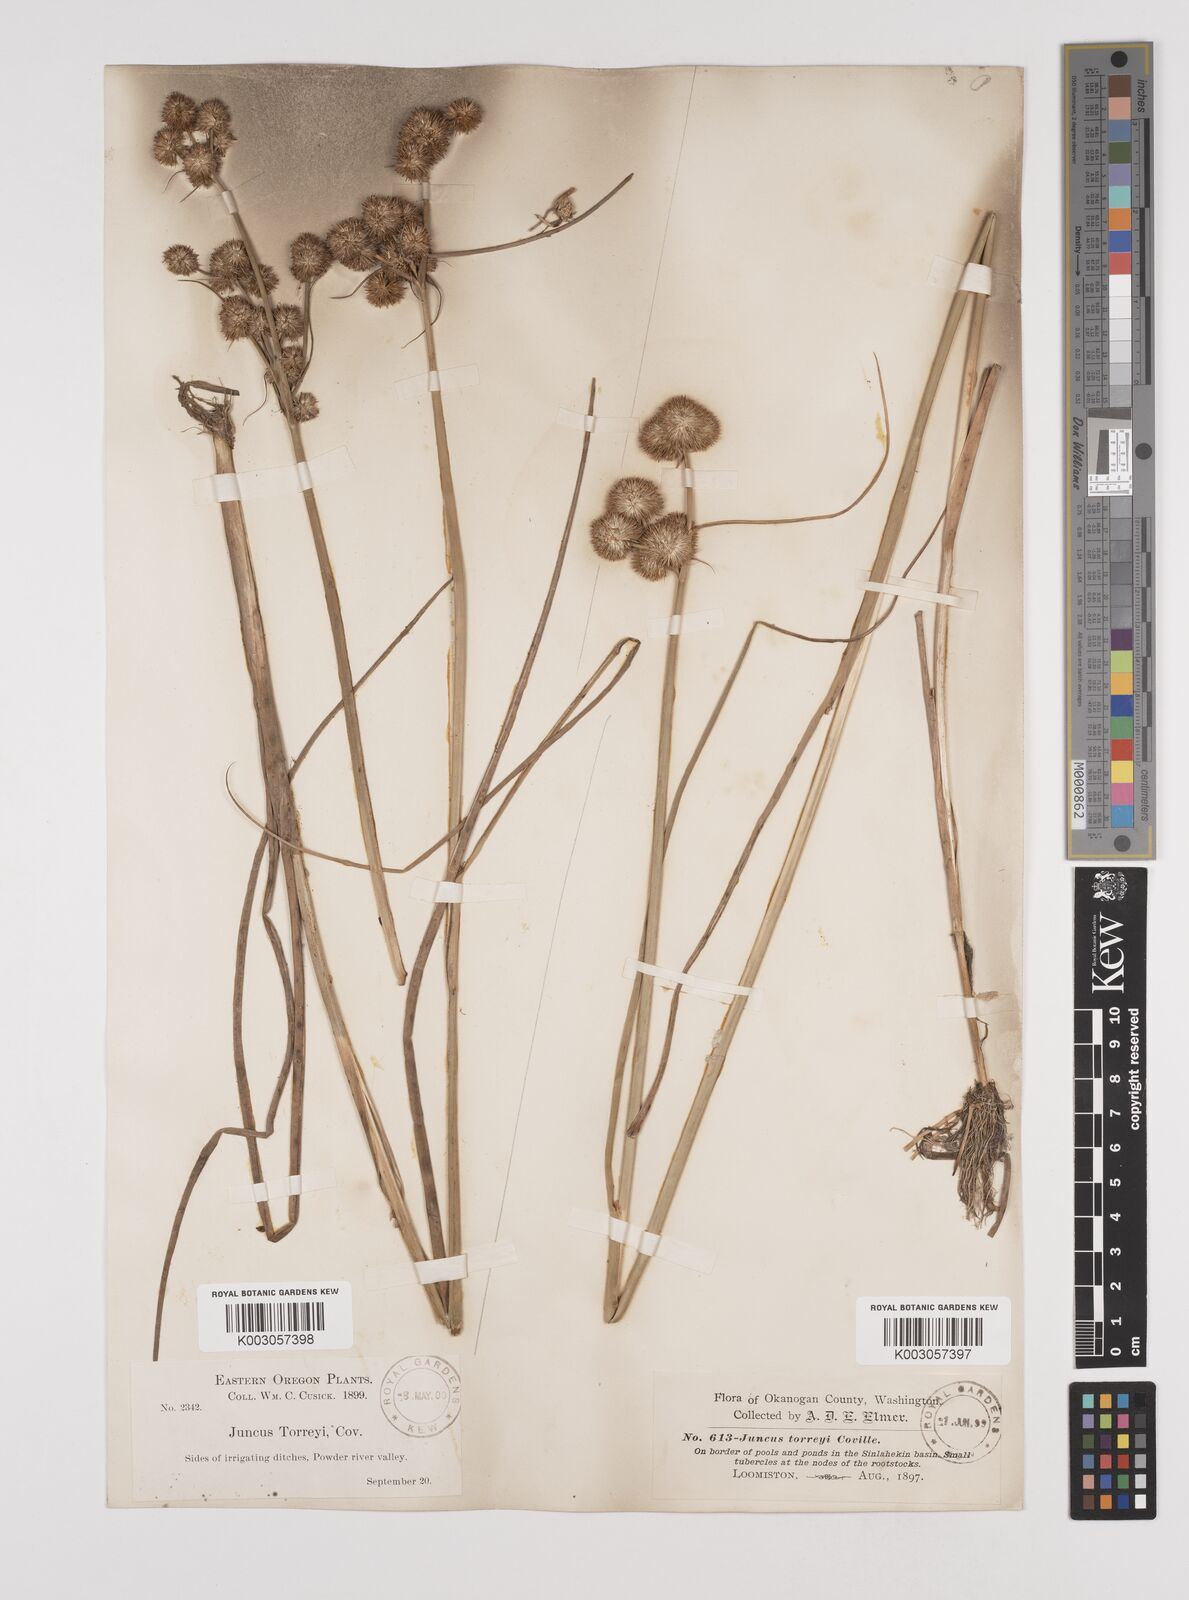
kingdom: Plantae
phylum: Tracheophyta
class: Liliopsida
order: Poales
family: Juncaceae
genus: Juncus
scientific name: Juncus torreyi
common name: Torrey's rush
